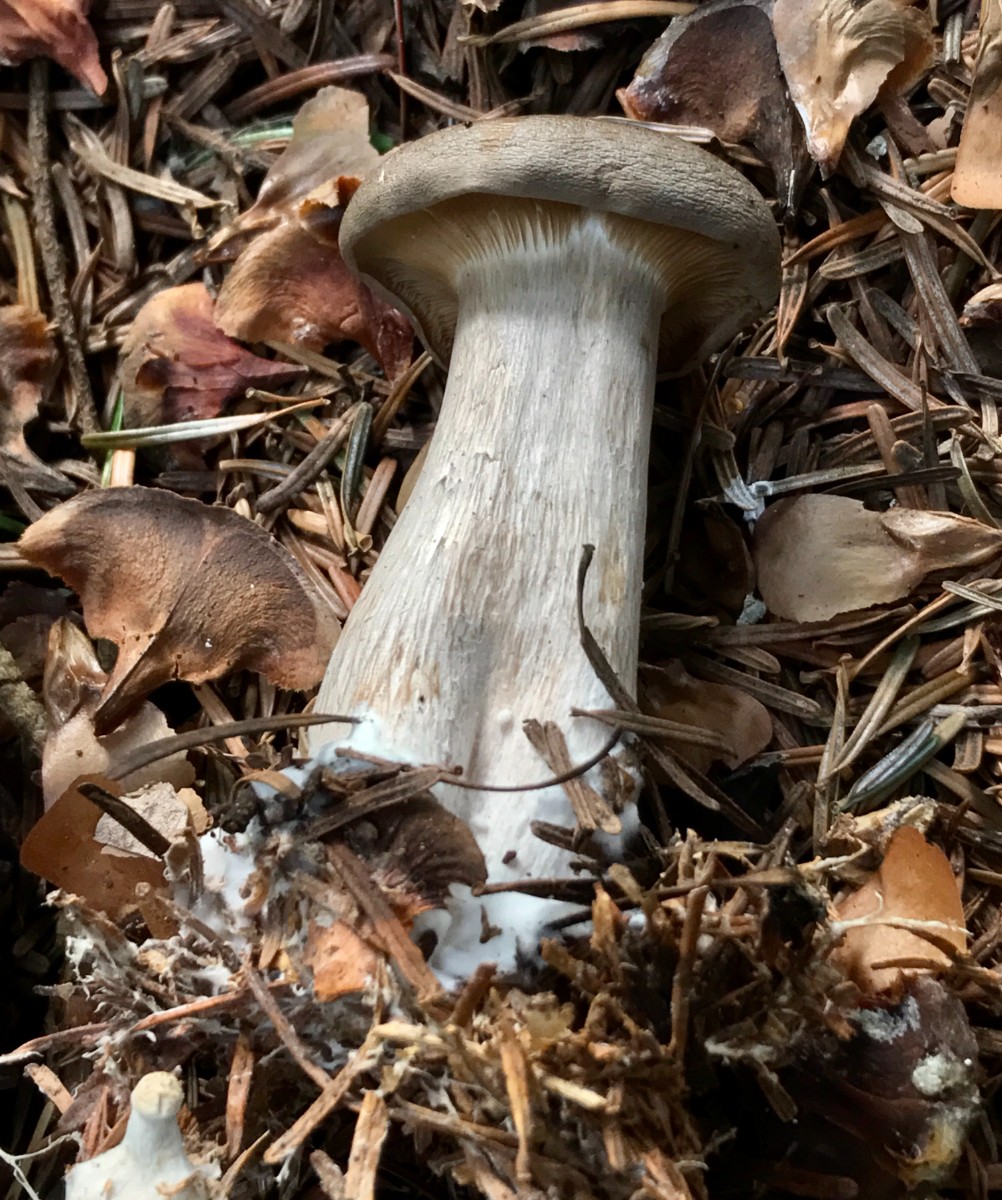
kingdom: Fungi
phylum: Basidiomycota
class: Agaricomycetes
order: Agaricales
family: Tricholomataceae
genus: Clitocybe
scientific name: Clitocybe nebularis
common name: tåge-tragthat
